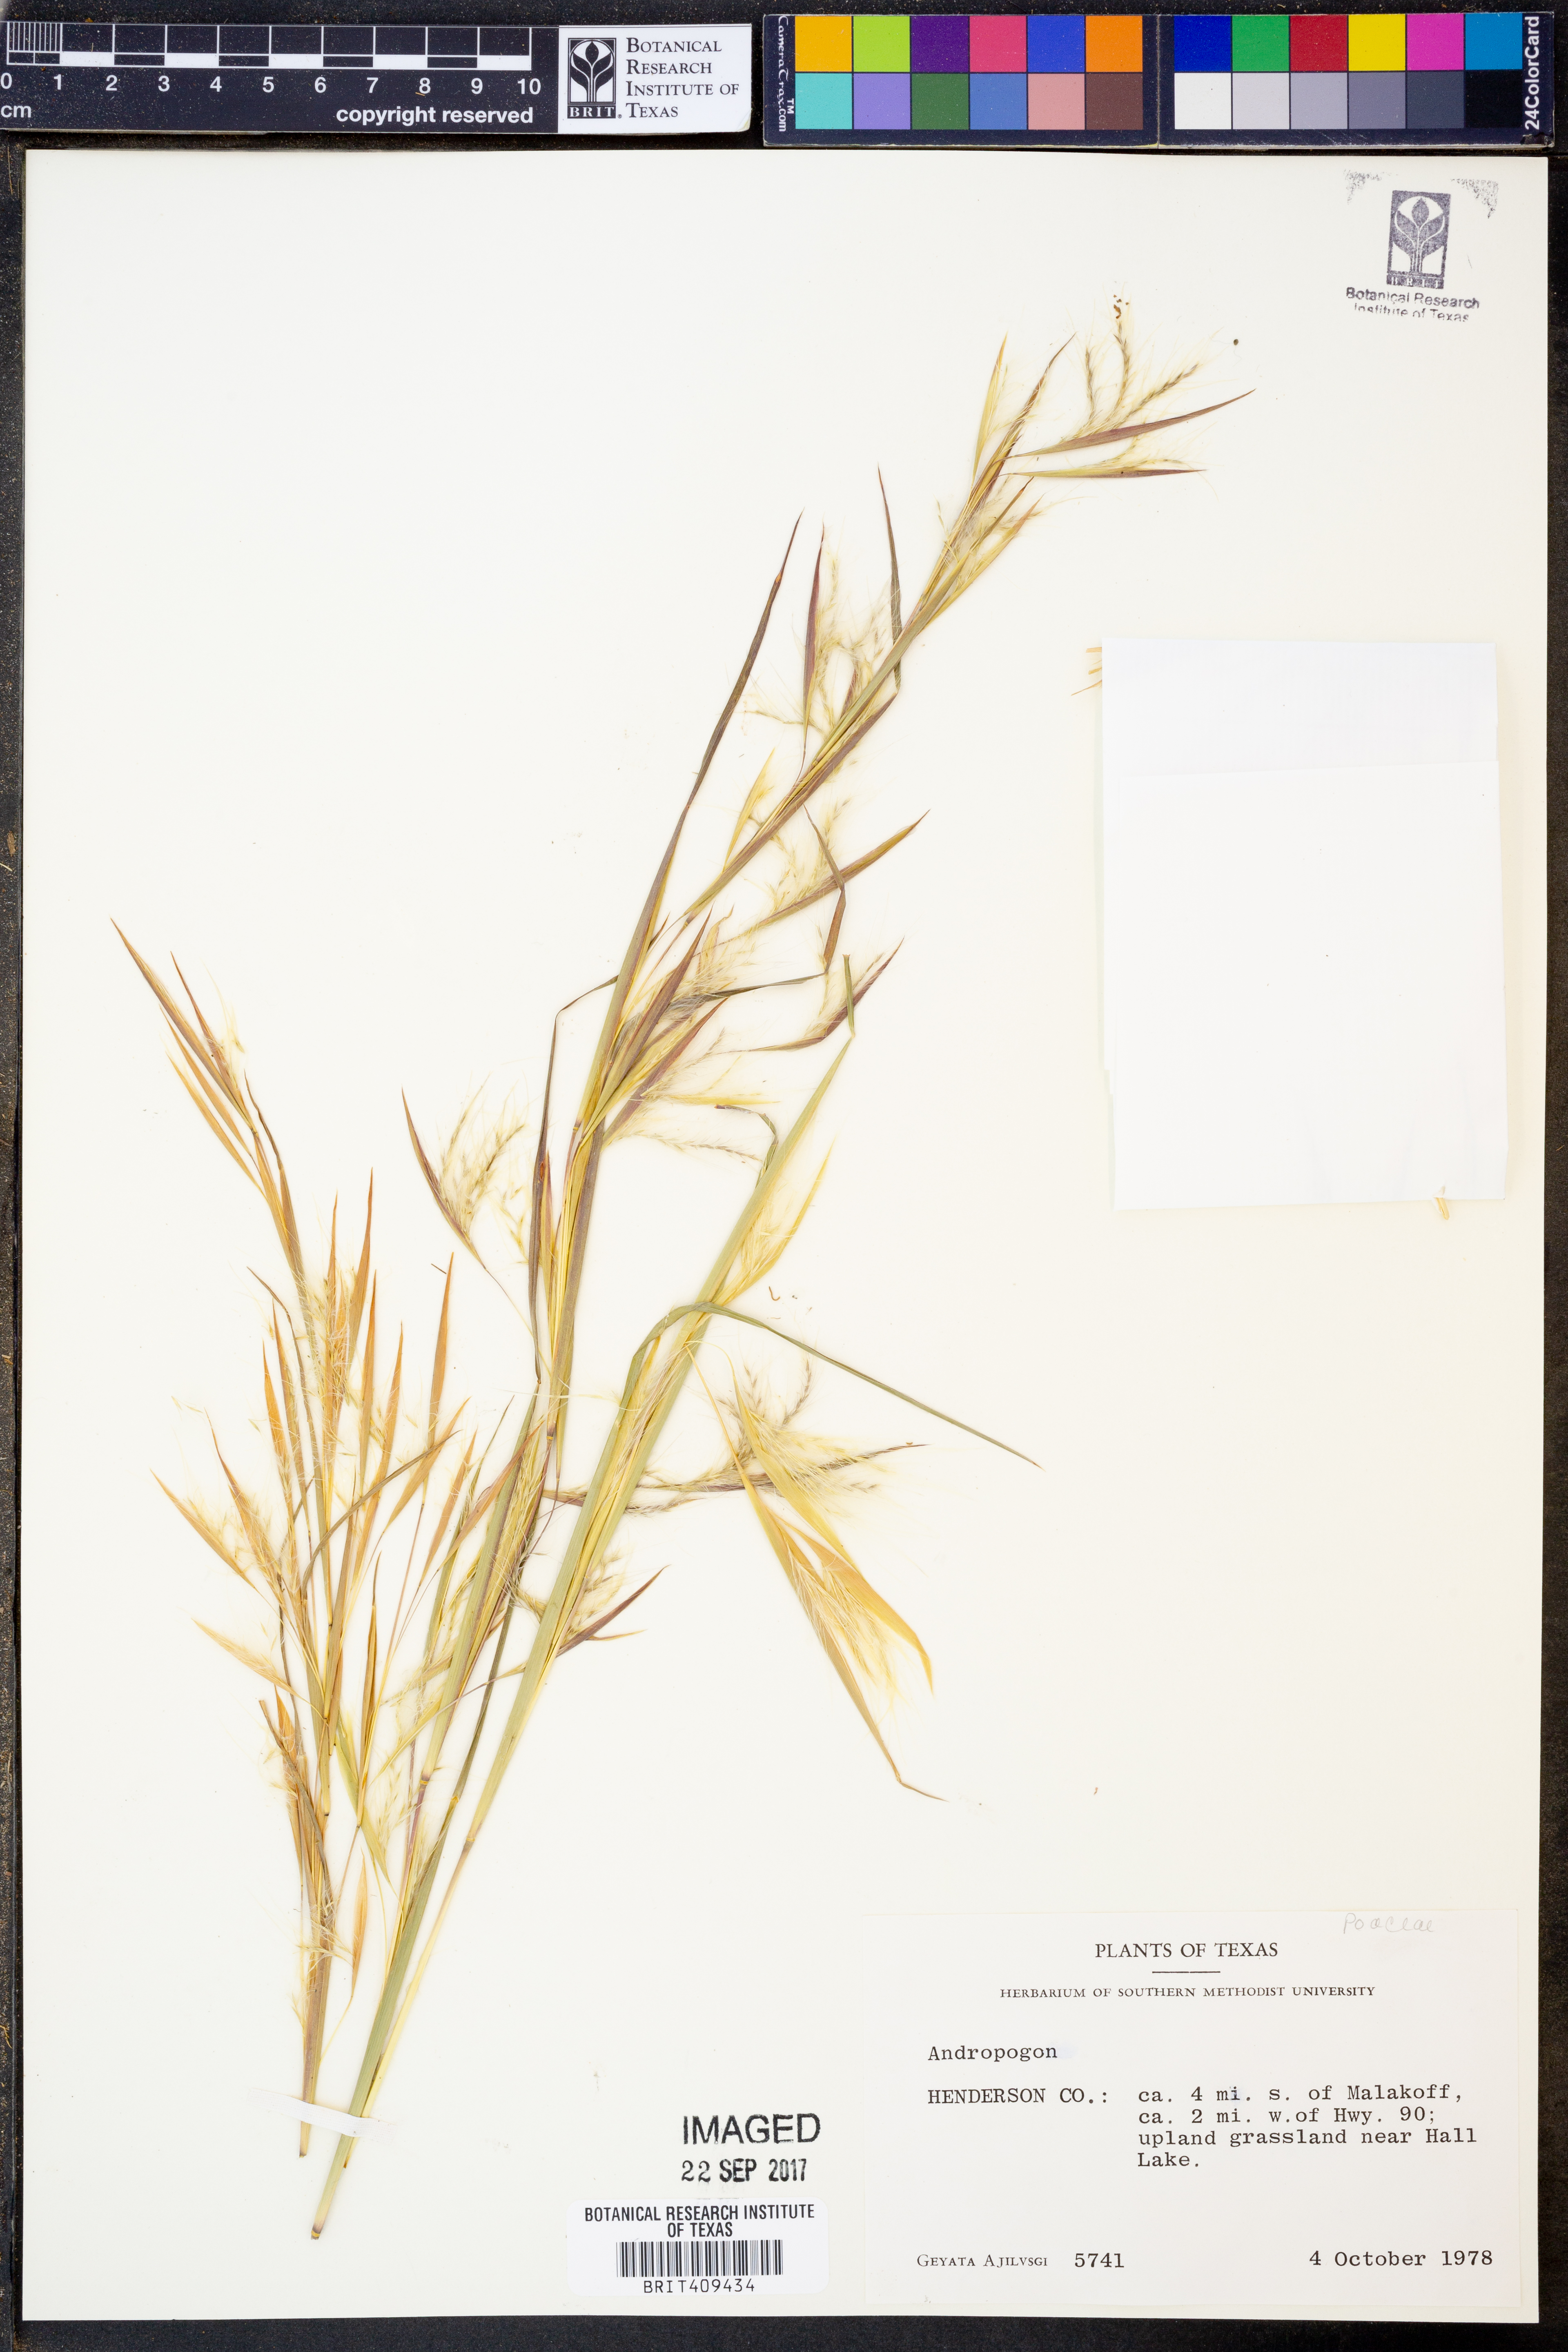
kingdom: Plantae
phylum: Tracheophyta
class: Liliopsida
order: Poales
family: Poaceae
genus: Andropogon
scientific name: Andropogon
